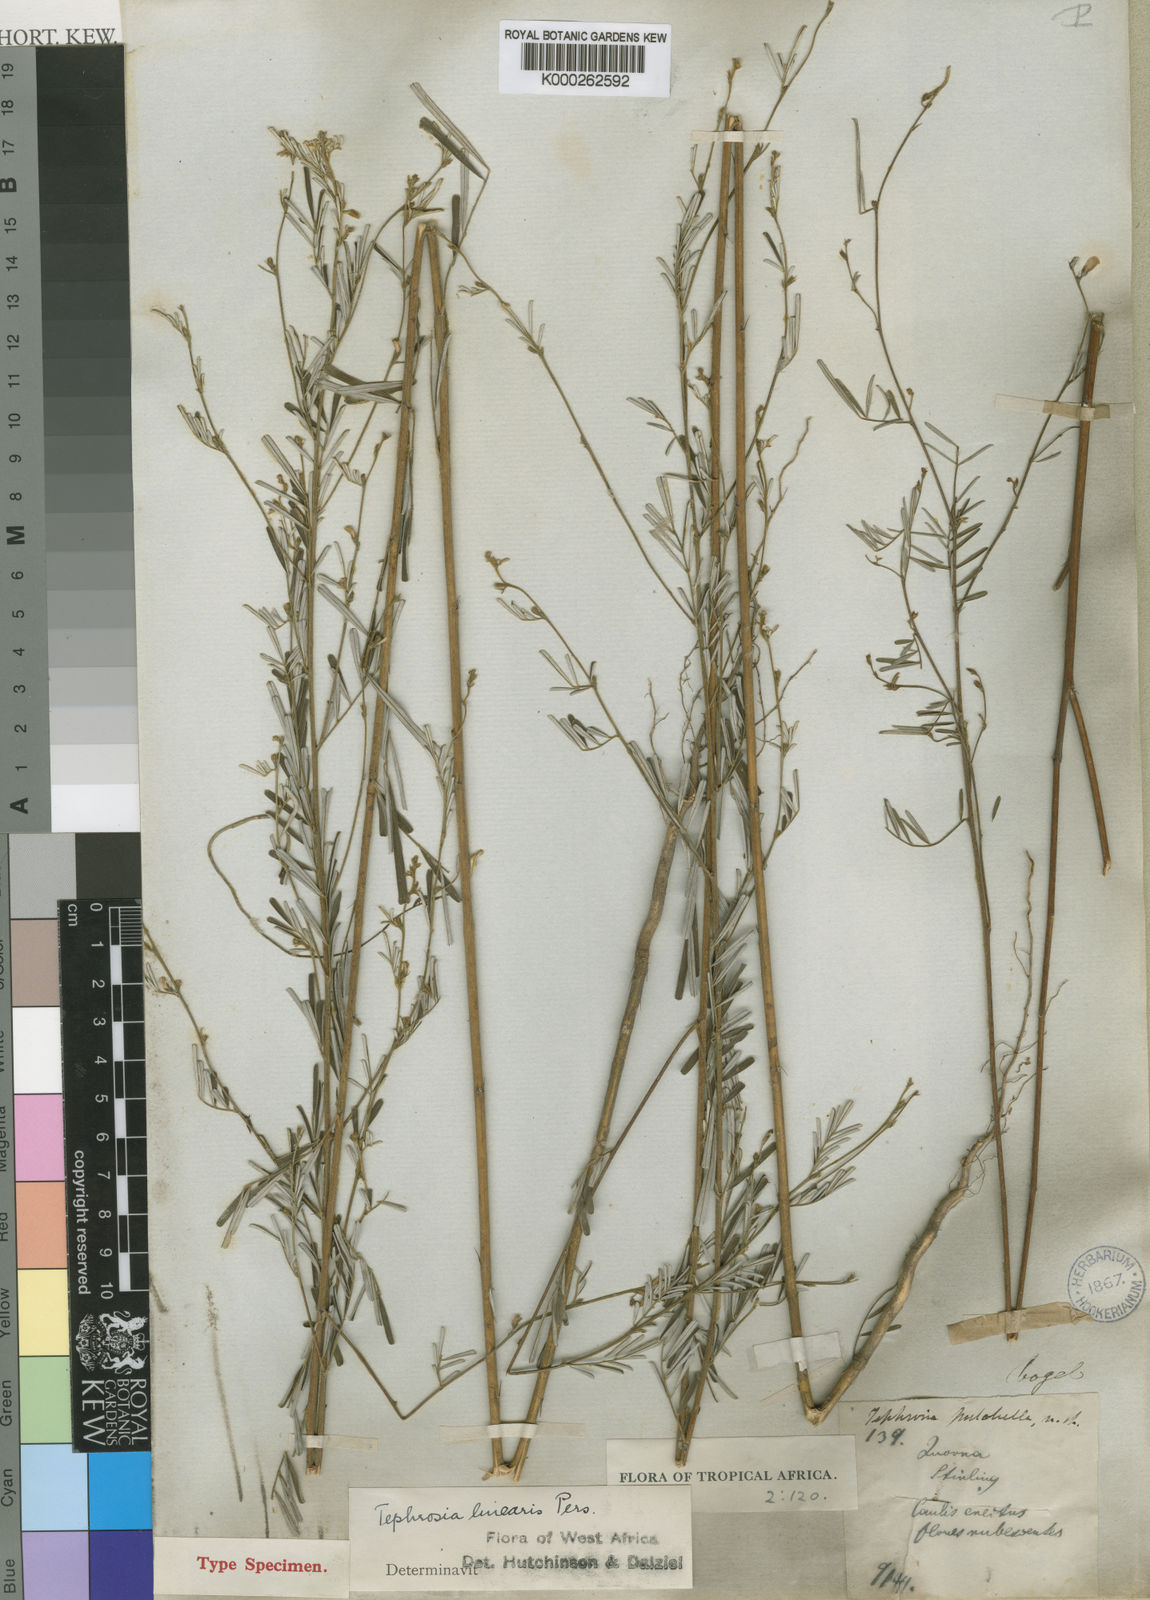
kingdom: Plantae
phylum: Tracheophyta
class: Magnoliopsida
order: Fabales
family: Fabaceae
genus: Tephrosia
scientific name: Tephrosia linearis
